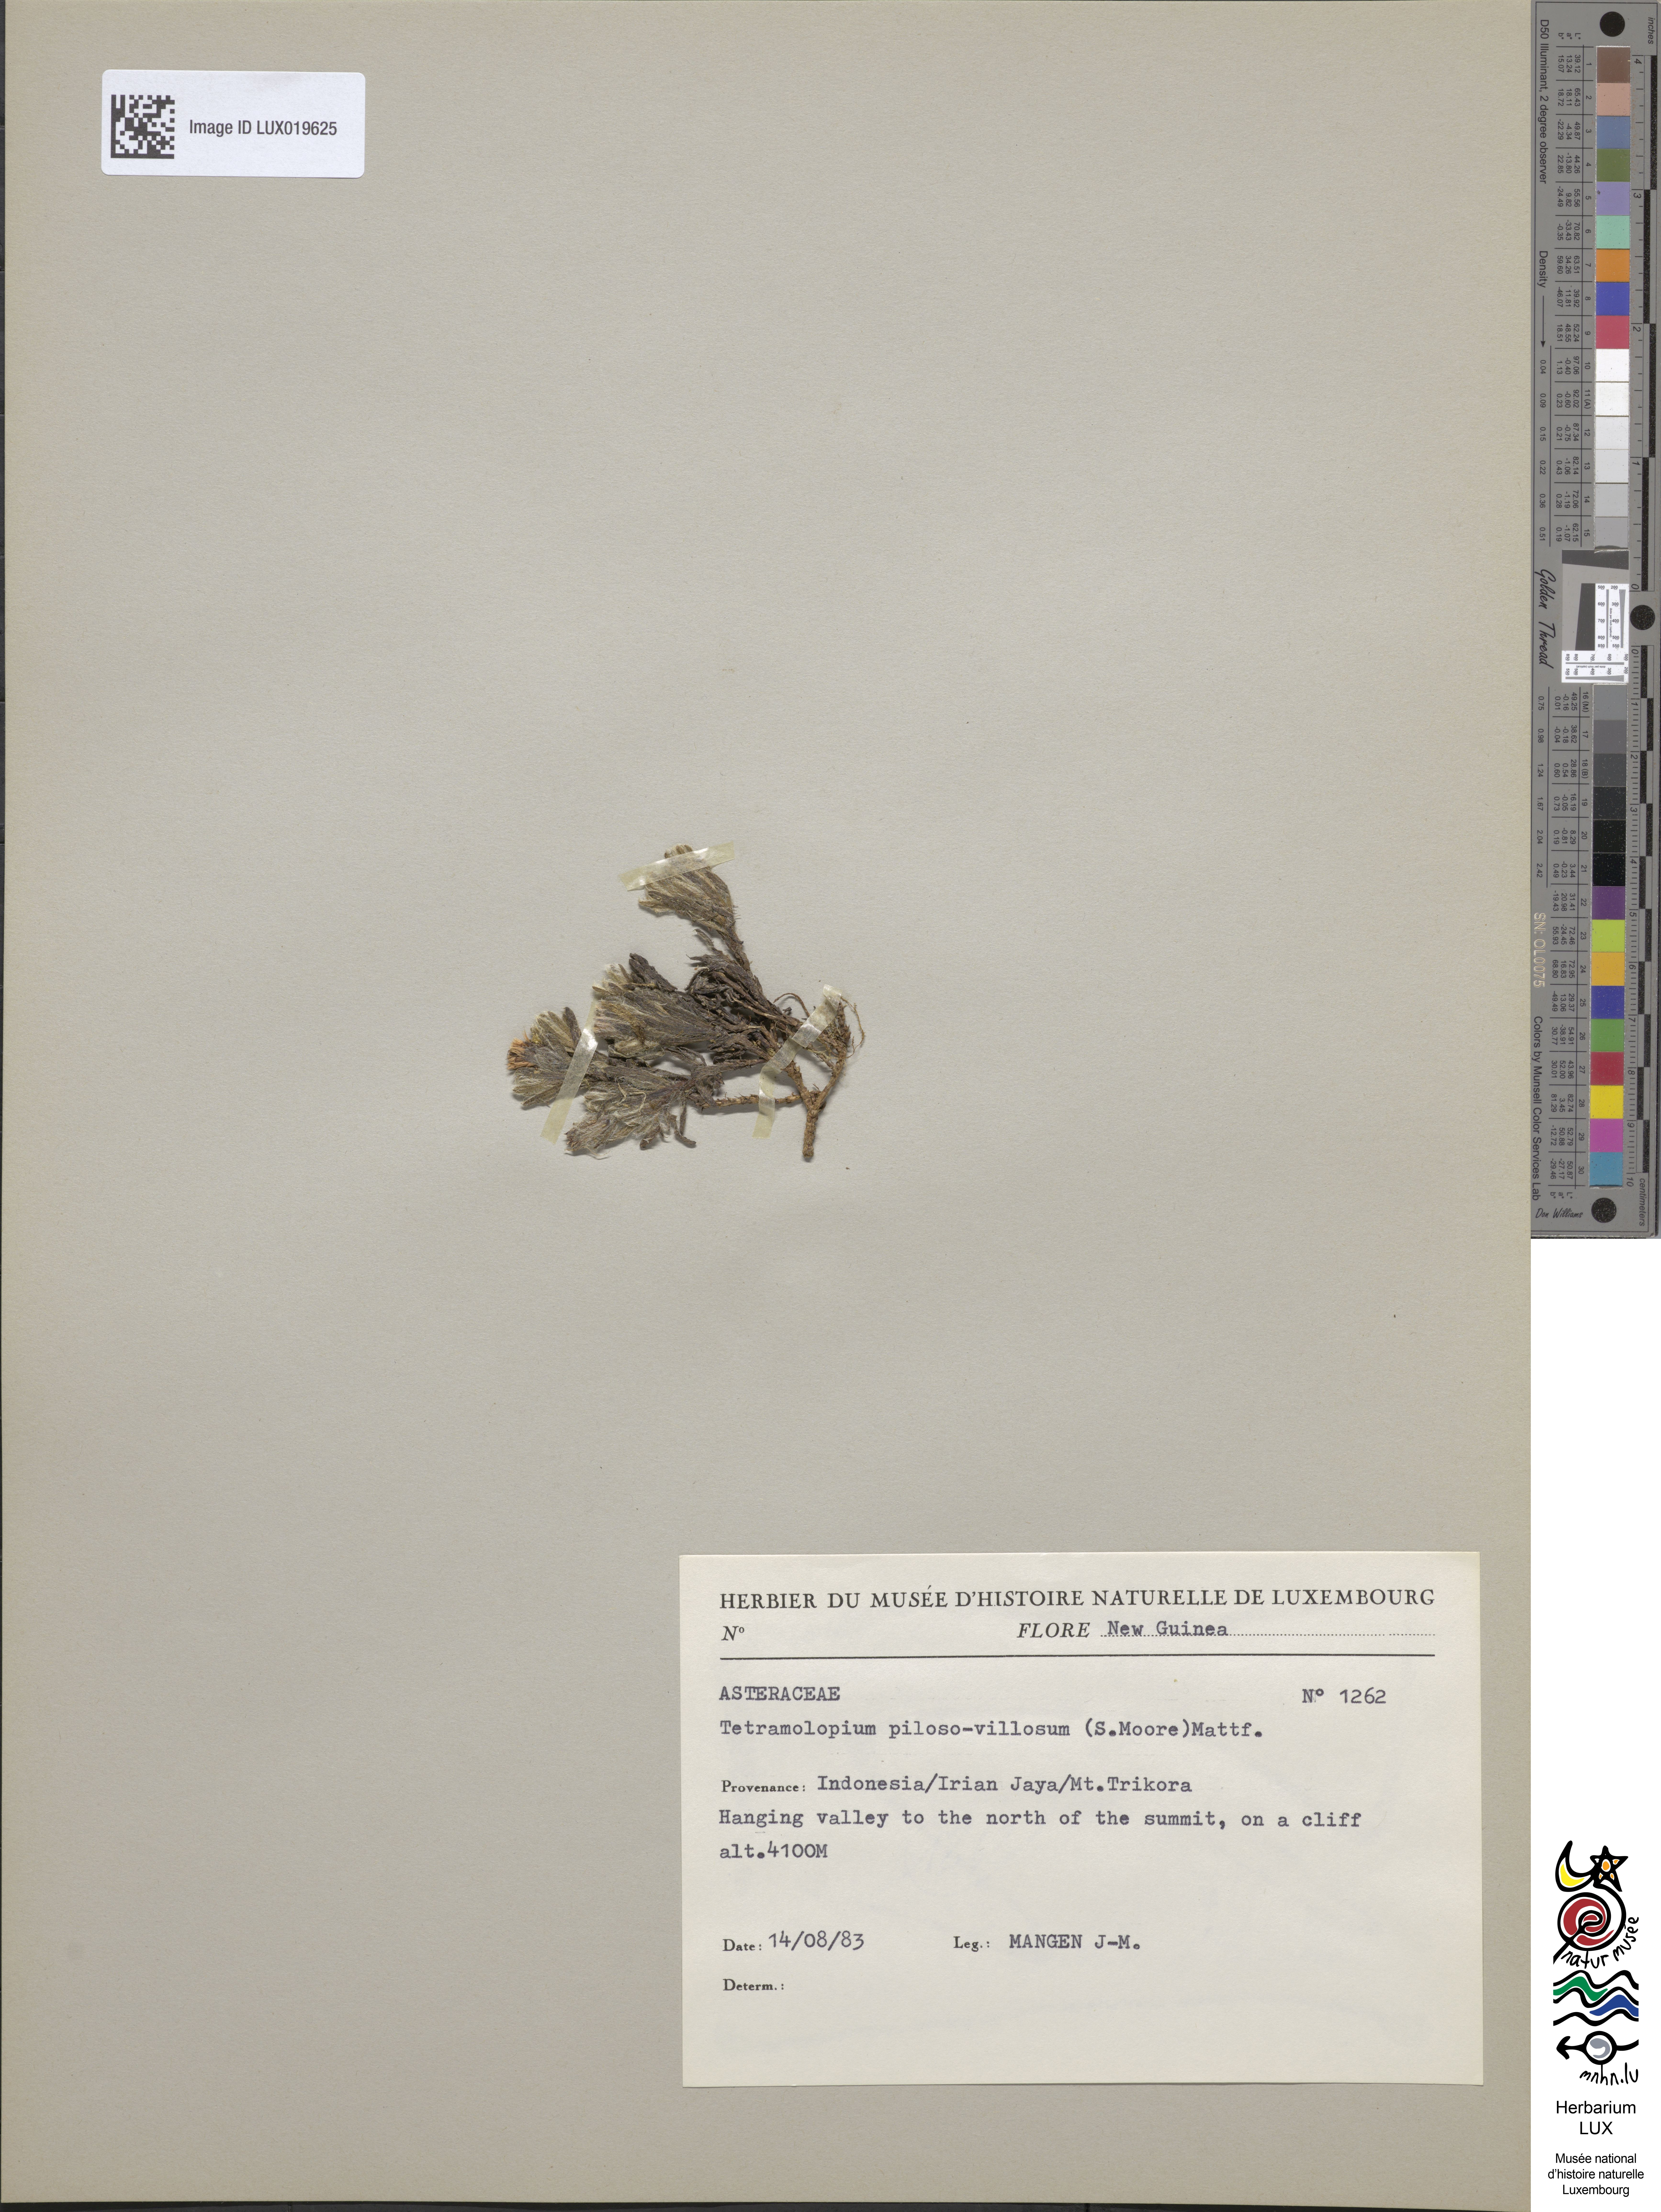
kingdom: Plantae
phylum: Tracheophyta
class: Magnoliopsida
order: Asterales
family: Asteraceae
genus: Tetramolopium
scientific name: Tetramolopium piloso-villosum
